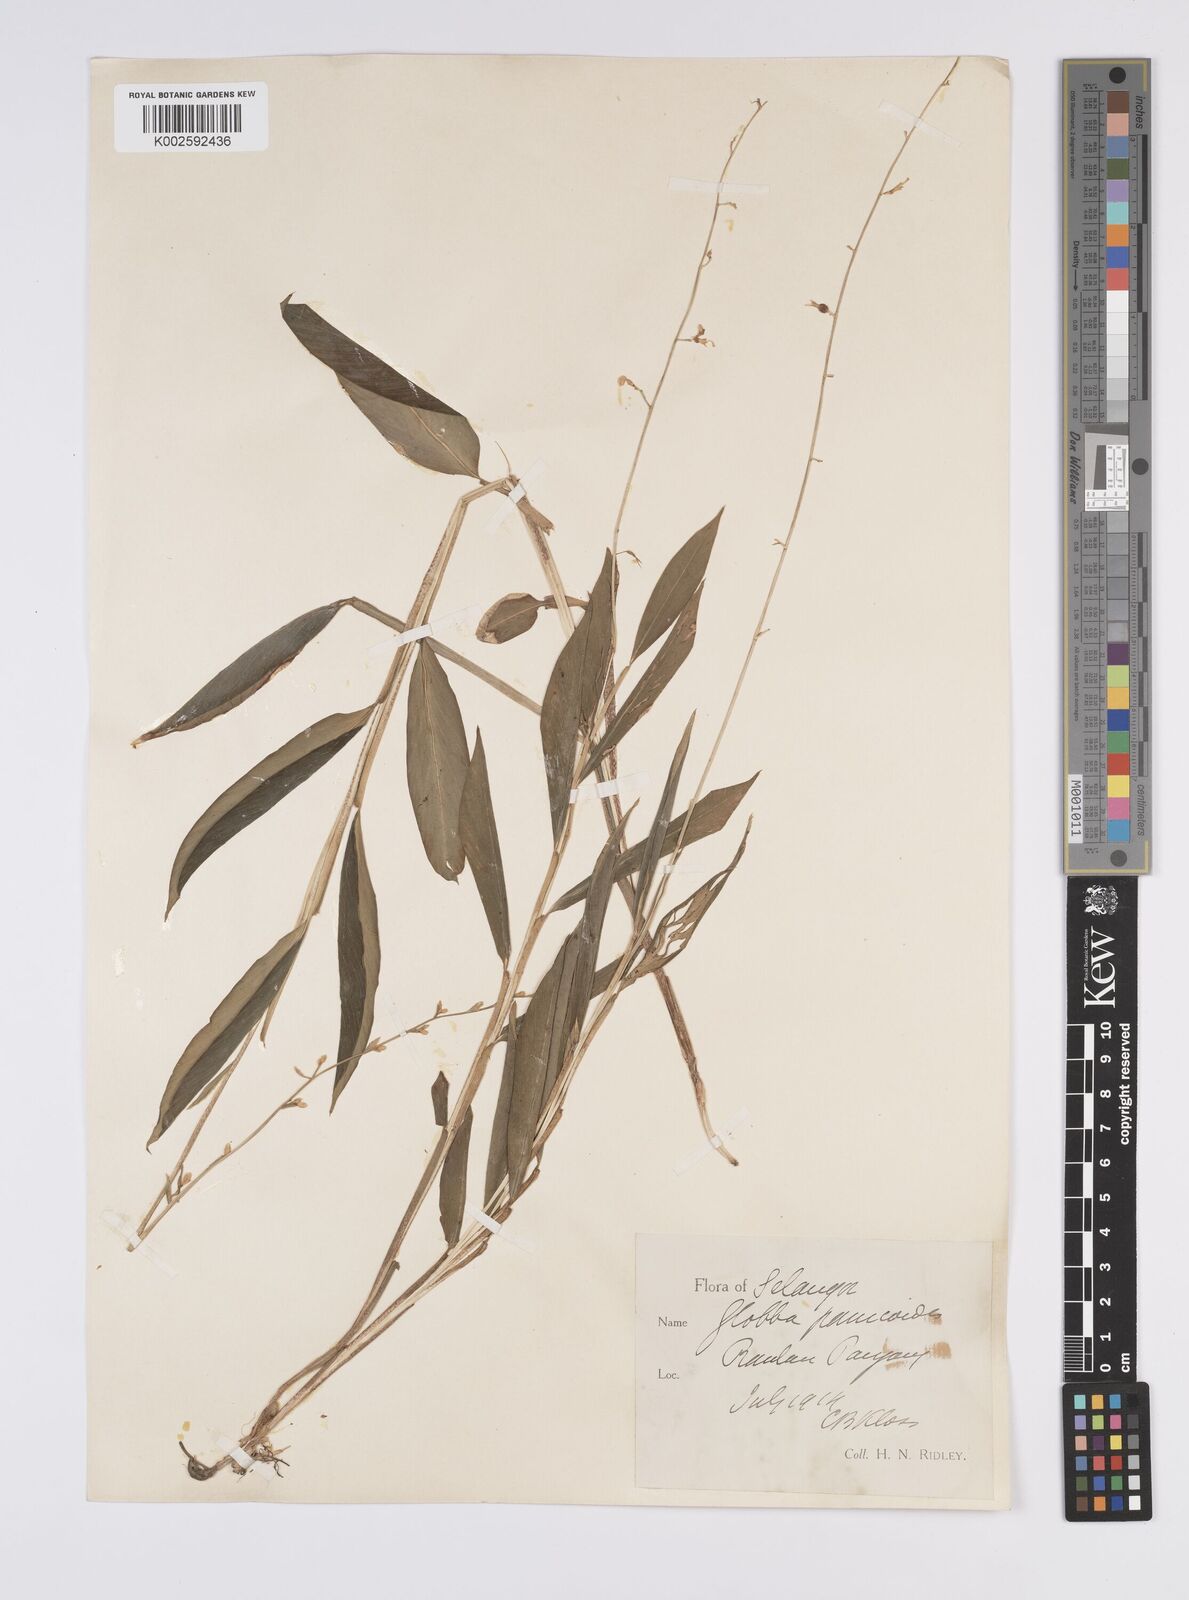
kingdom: Plantae
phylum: Tracheophyta
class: Liliopsida
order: Zingiberales
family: Zingiberaceae
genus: Globba
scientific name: Globba pendula
